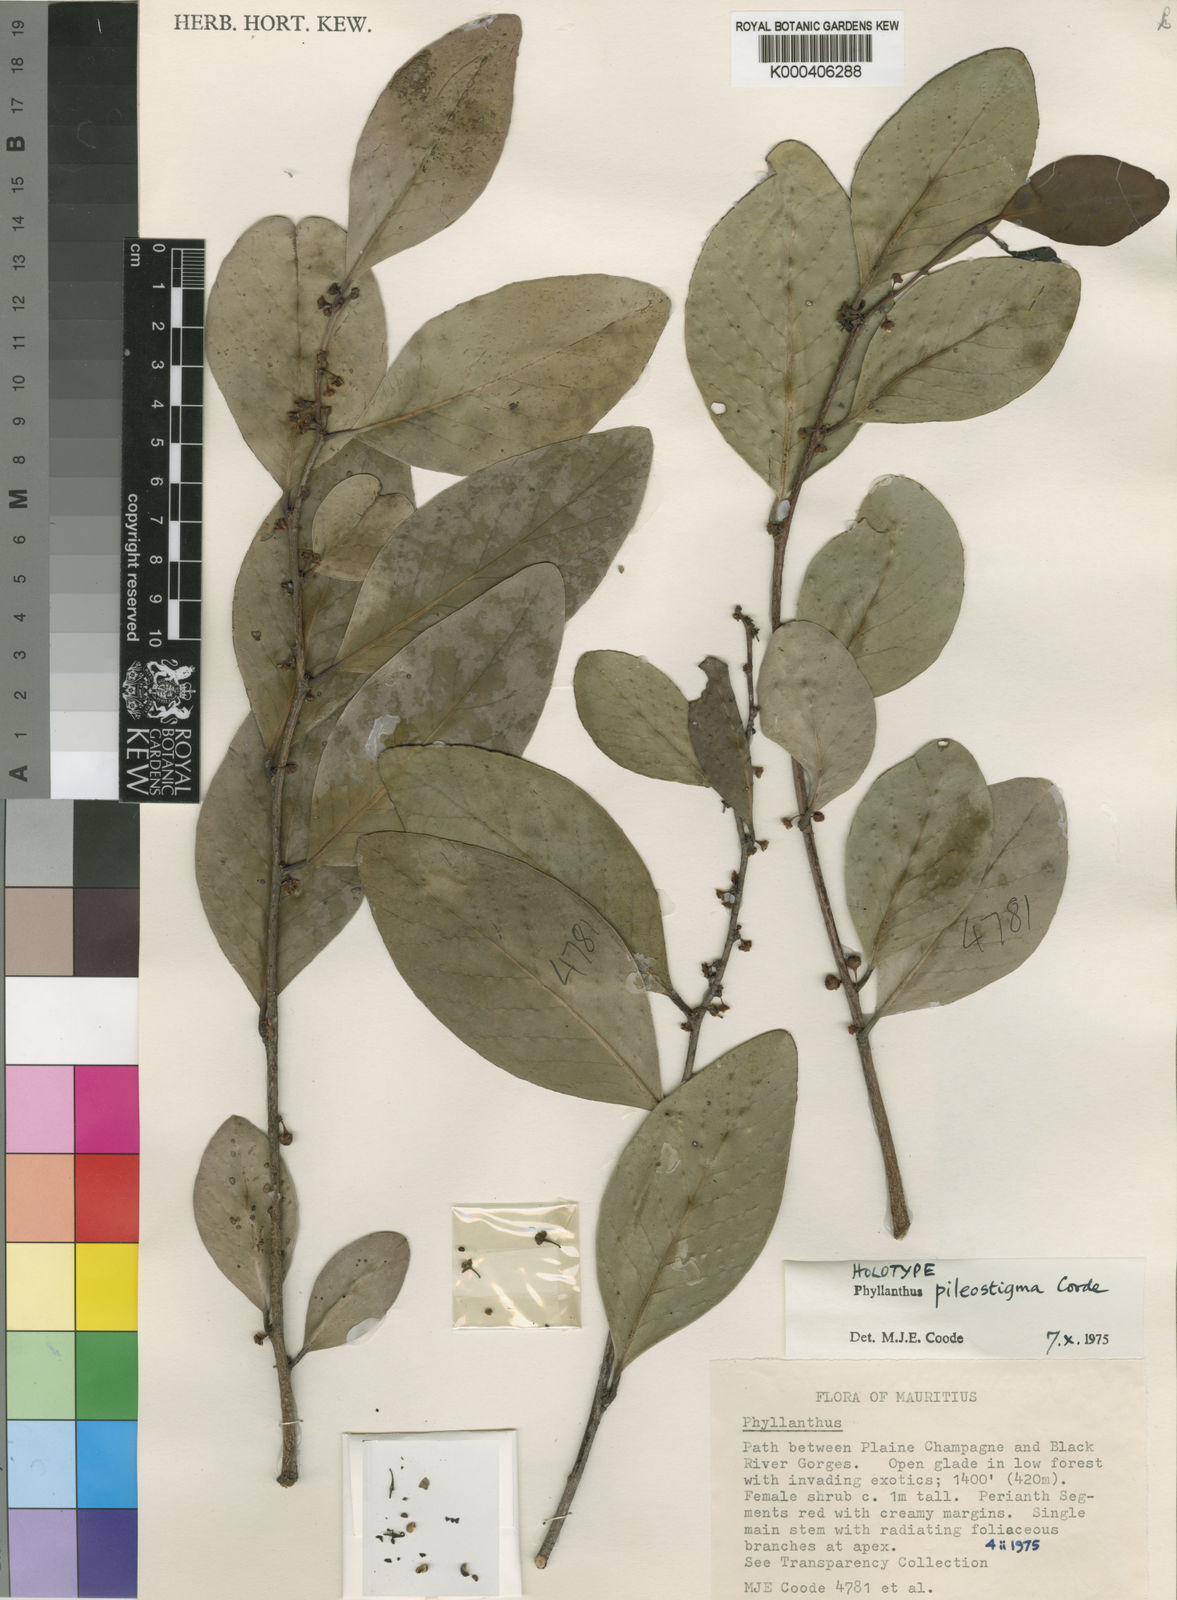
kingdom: Plantae
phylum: Tracheophyta
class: Magnoliopsida
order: Malpighiales
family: Phyllanthaceae
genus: Phyllanthus
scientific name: Phyllanthus pileostigma
